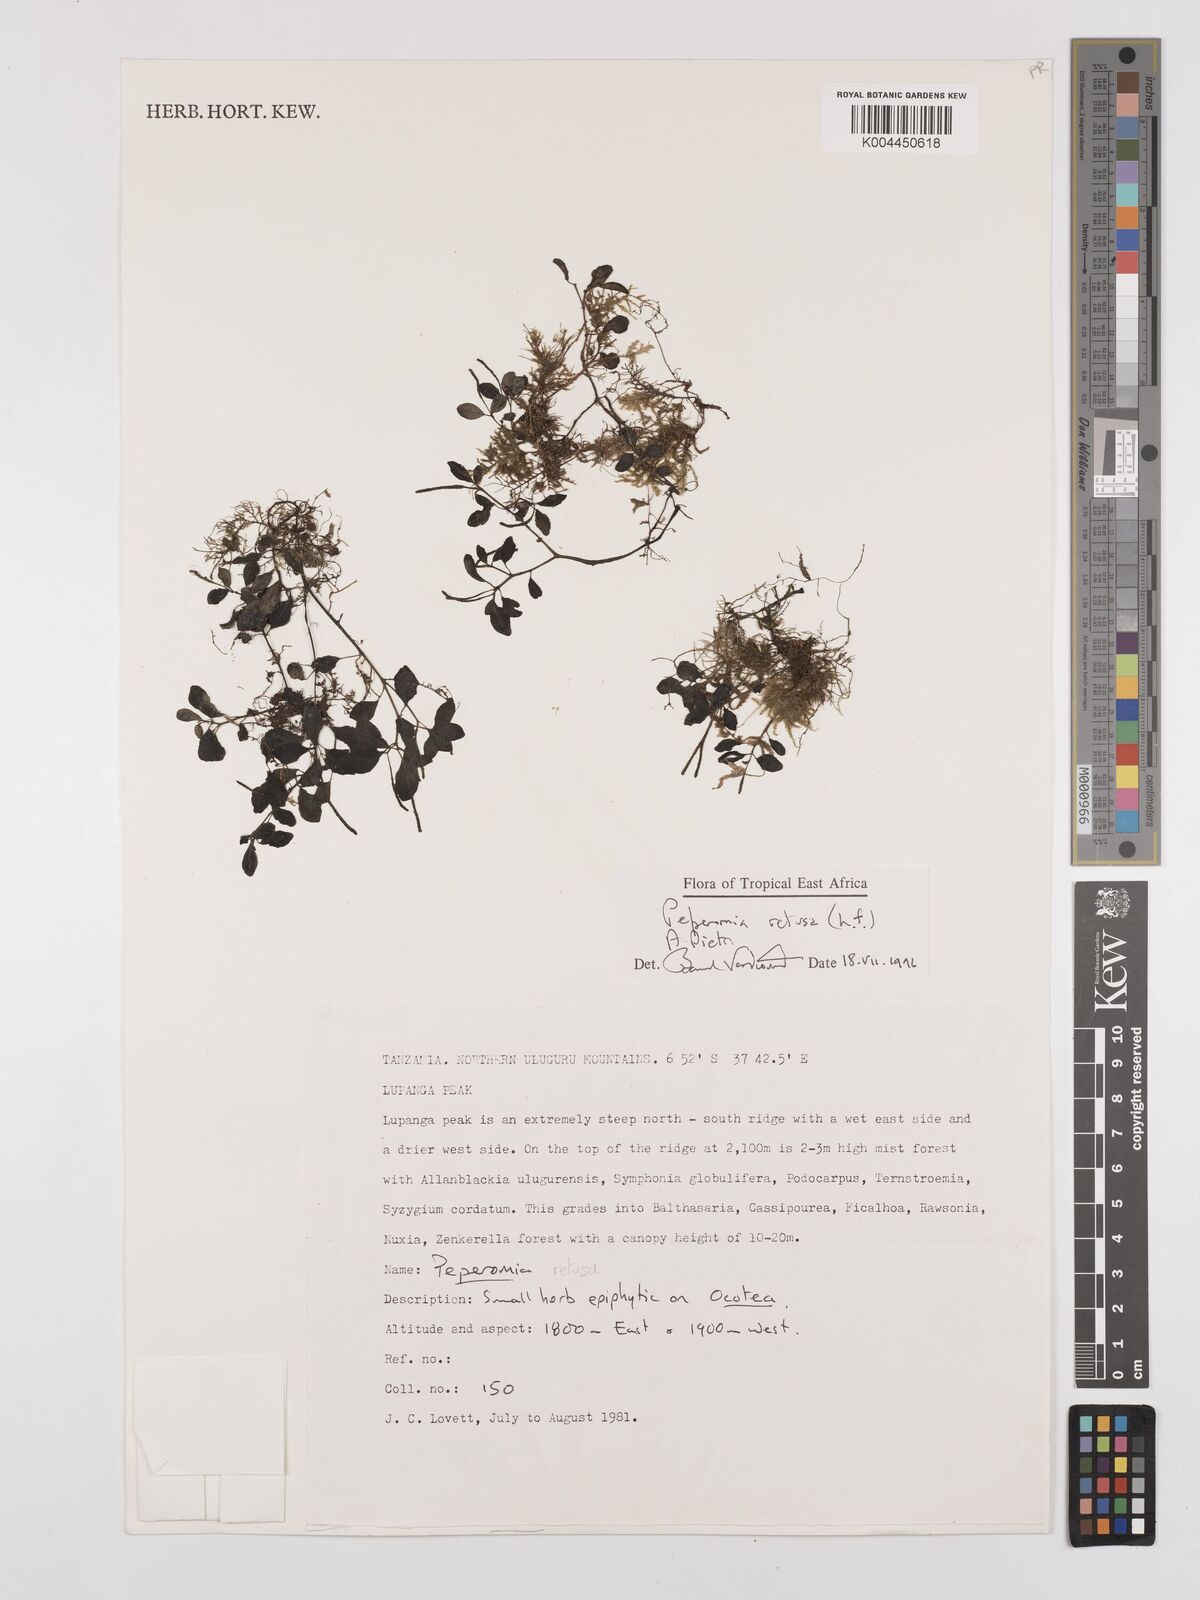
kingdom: Plantae
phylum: Tracheophyta
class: Magnoliopsida
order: Piperales
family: Piperaceae
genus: Peperomia
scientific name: Peperomia retusa
